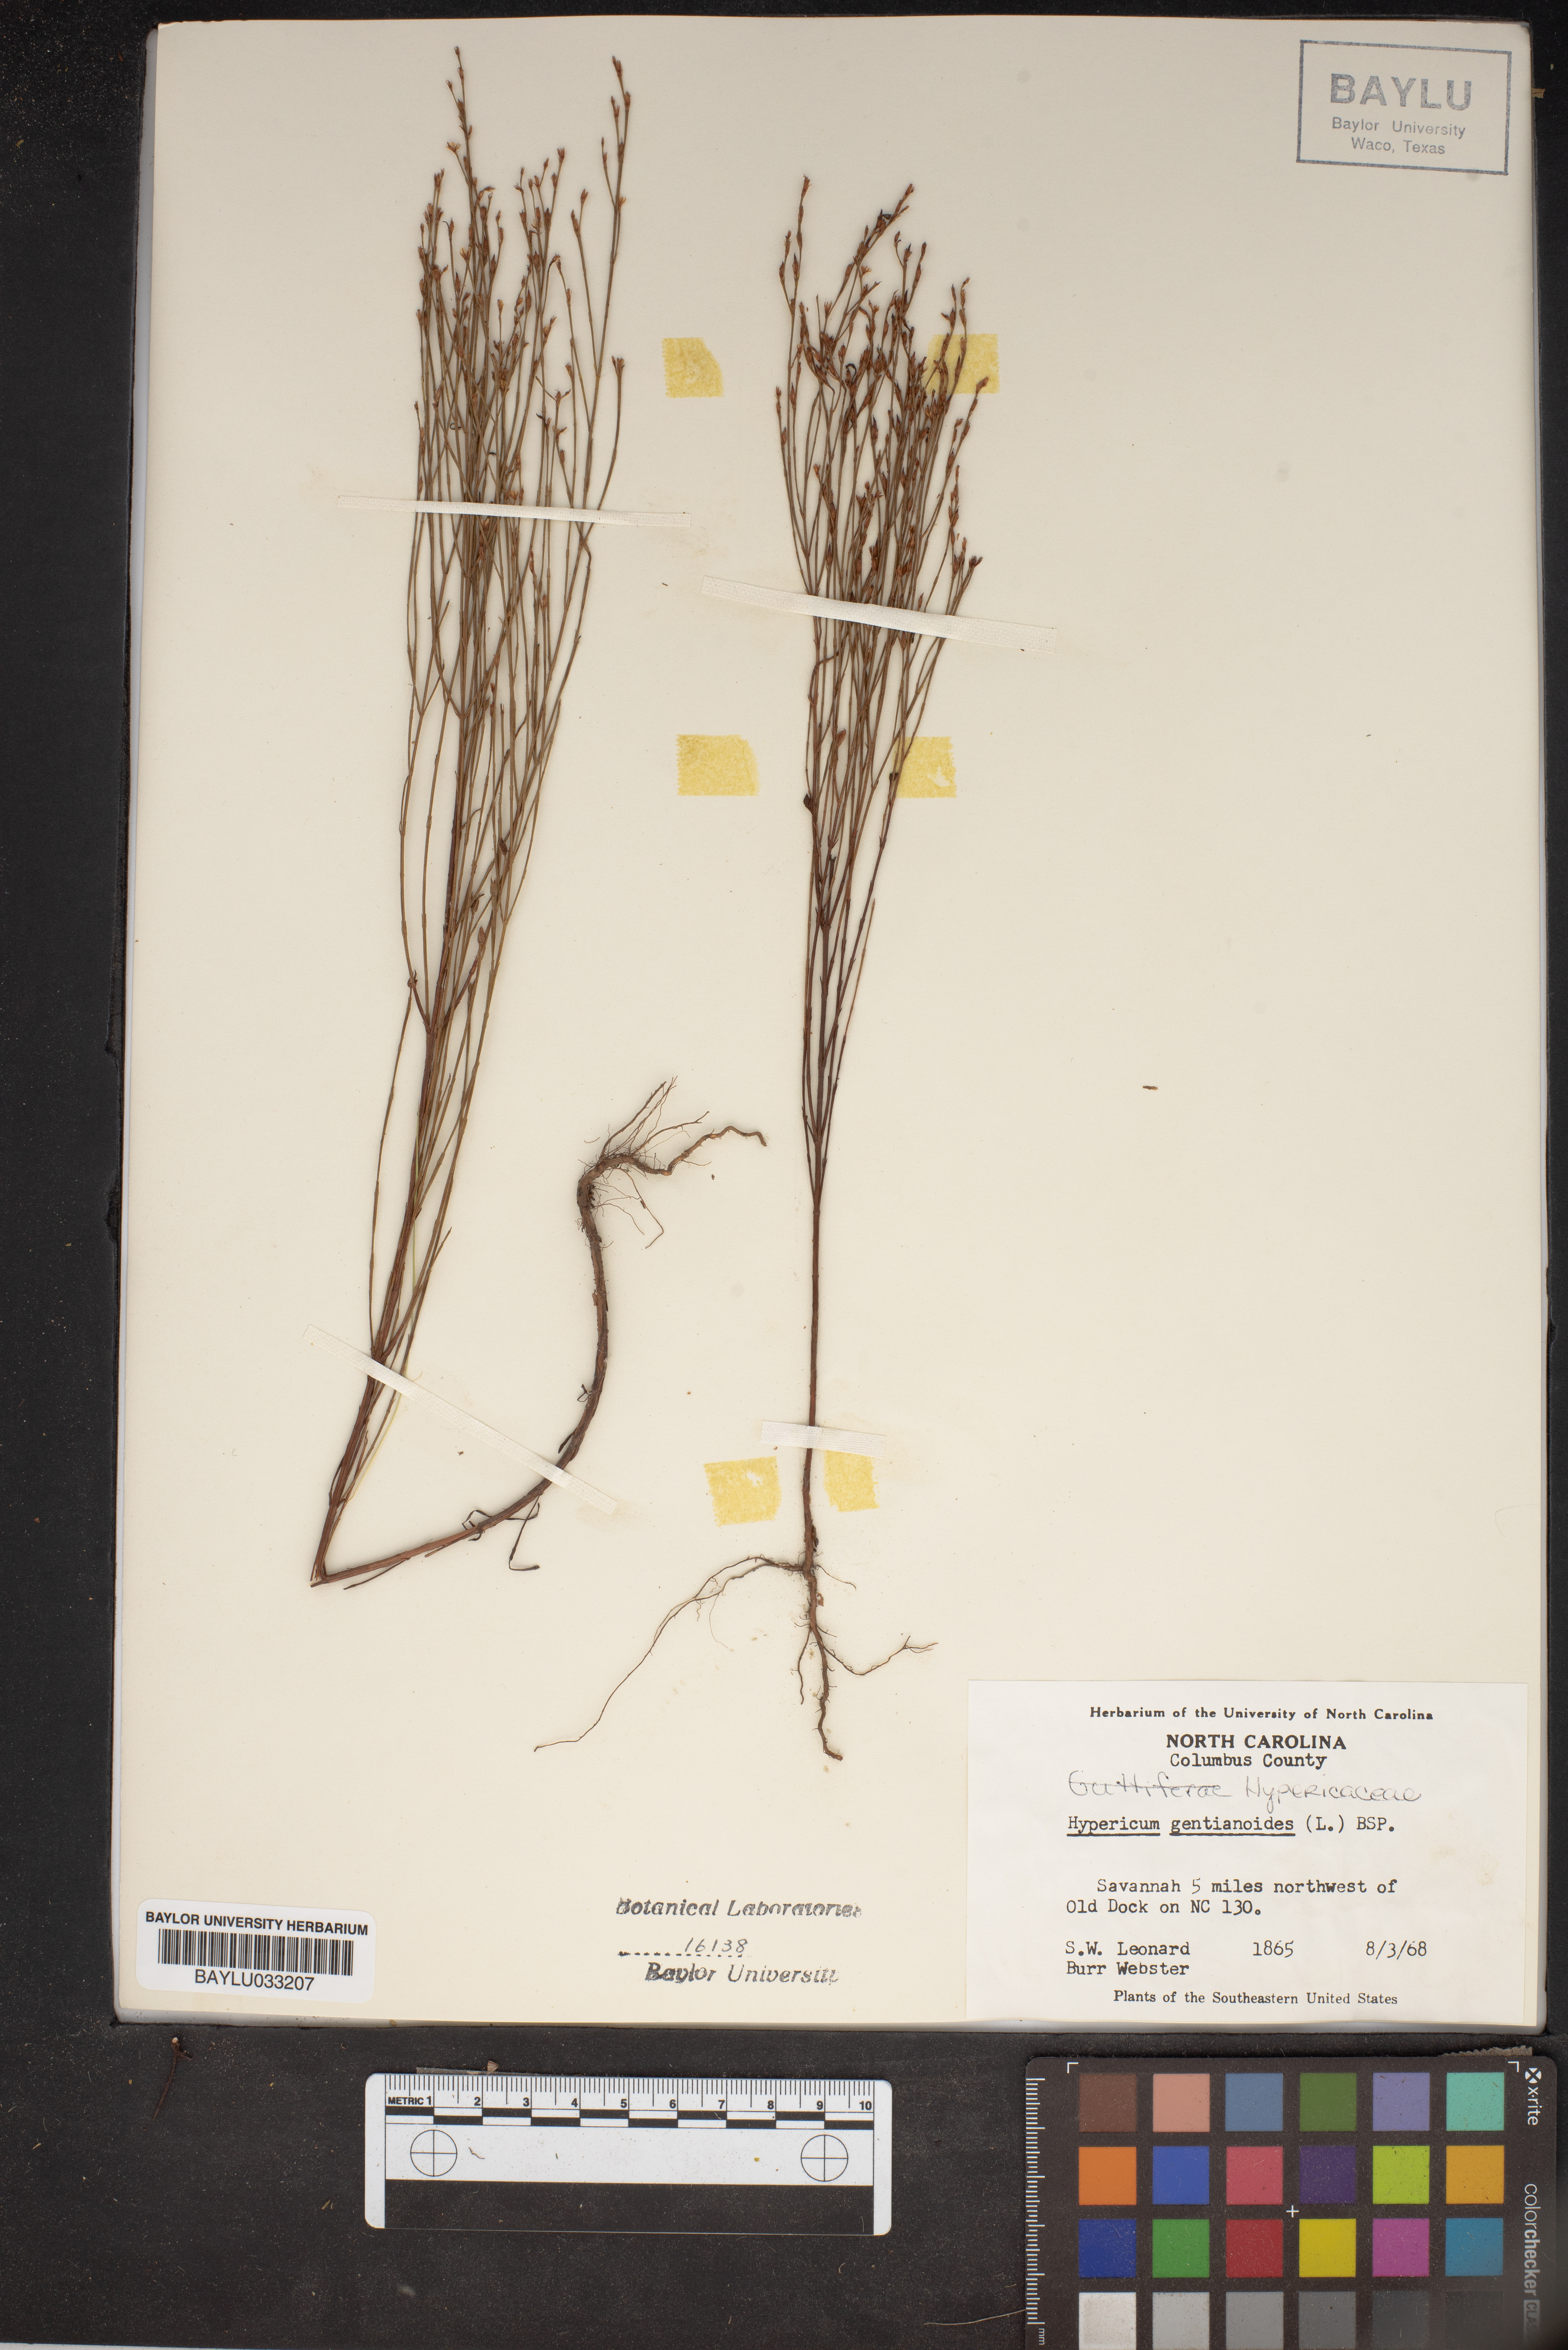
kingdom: Plantae
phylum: Tracheophyta
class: Magnoliopsida
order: Malpighiales
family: Hypericaceae
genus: Hypericum
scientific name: Hypericum gentianoides
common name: Gentian-leaved st. john's-wort
